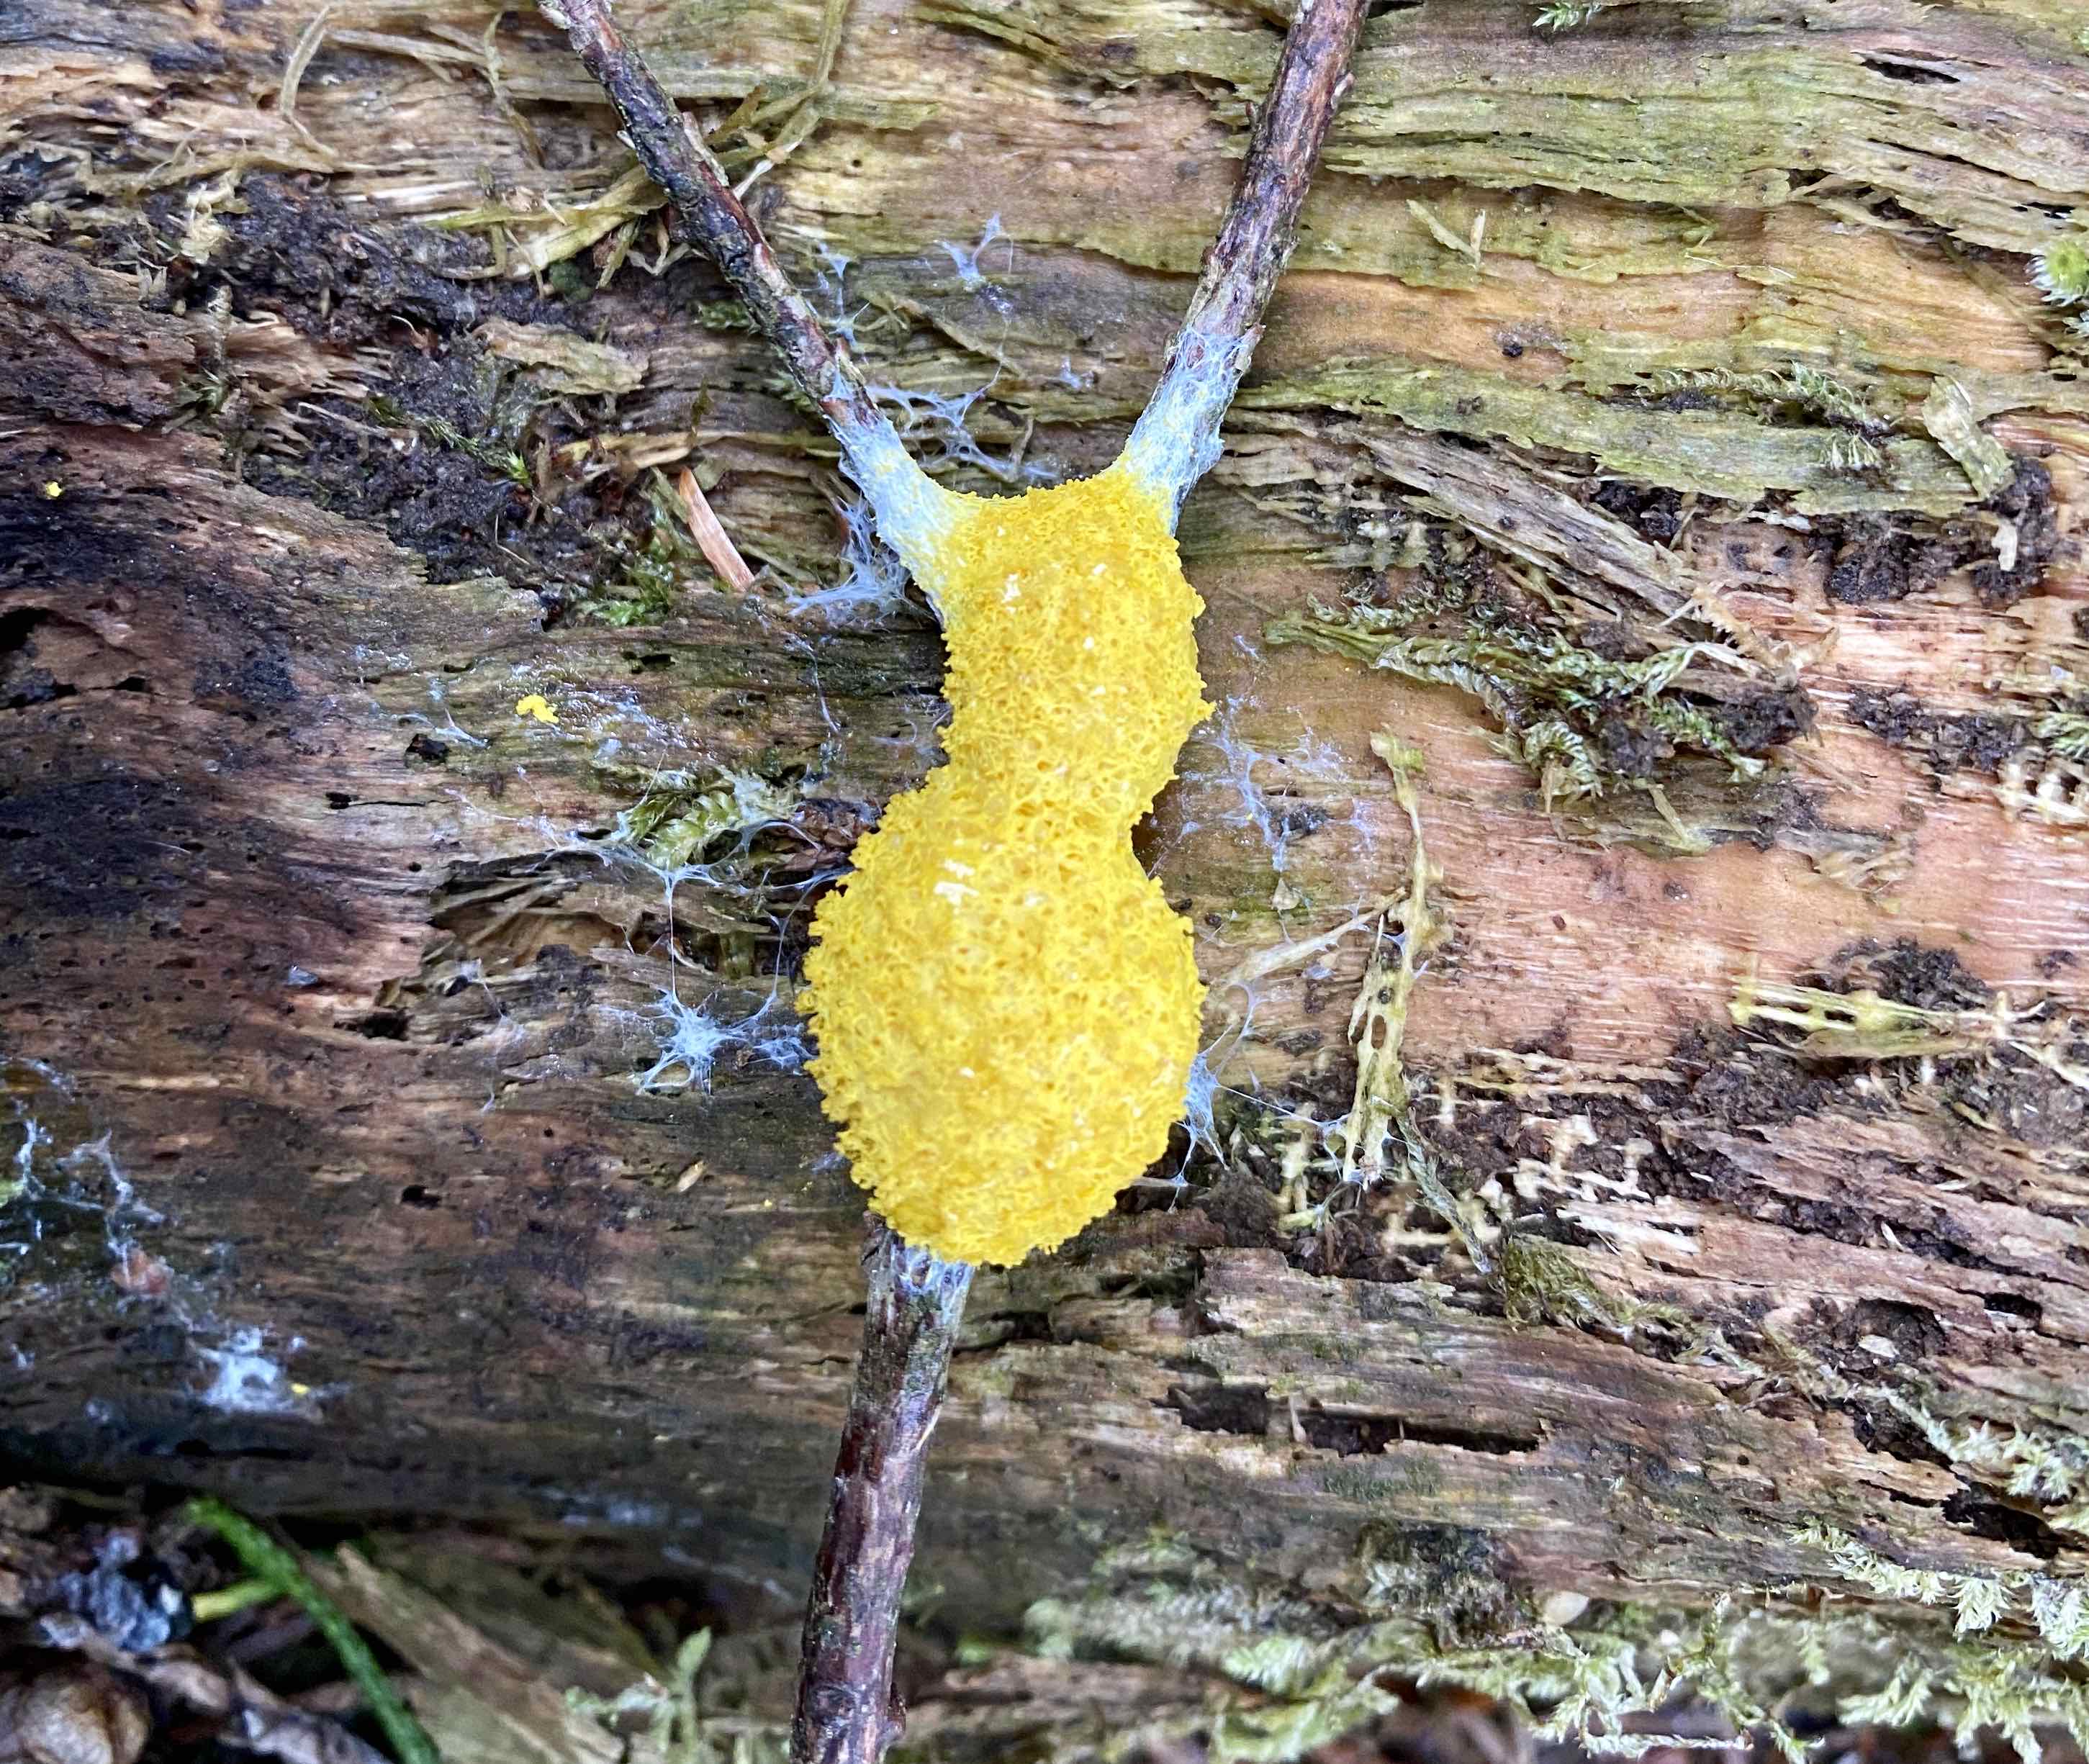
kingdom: Protozoa
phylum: Mycetozoa
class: Myxomycetes
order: Physarales
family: Physaraceae
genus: Fuligo
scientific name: Fuligo septica
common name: gul troldsmør
